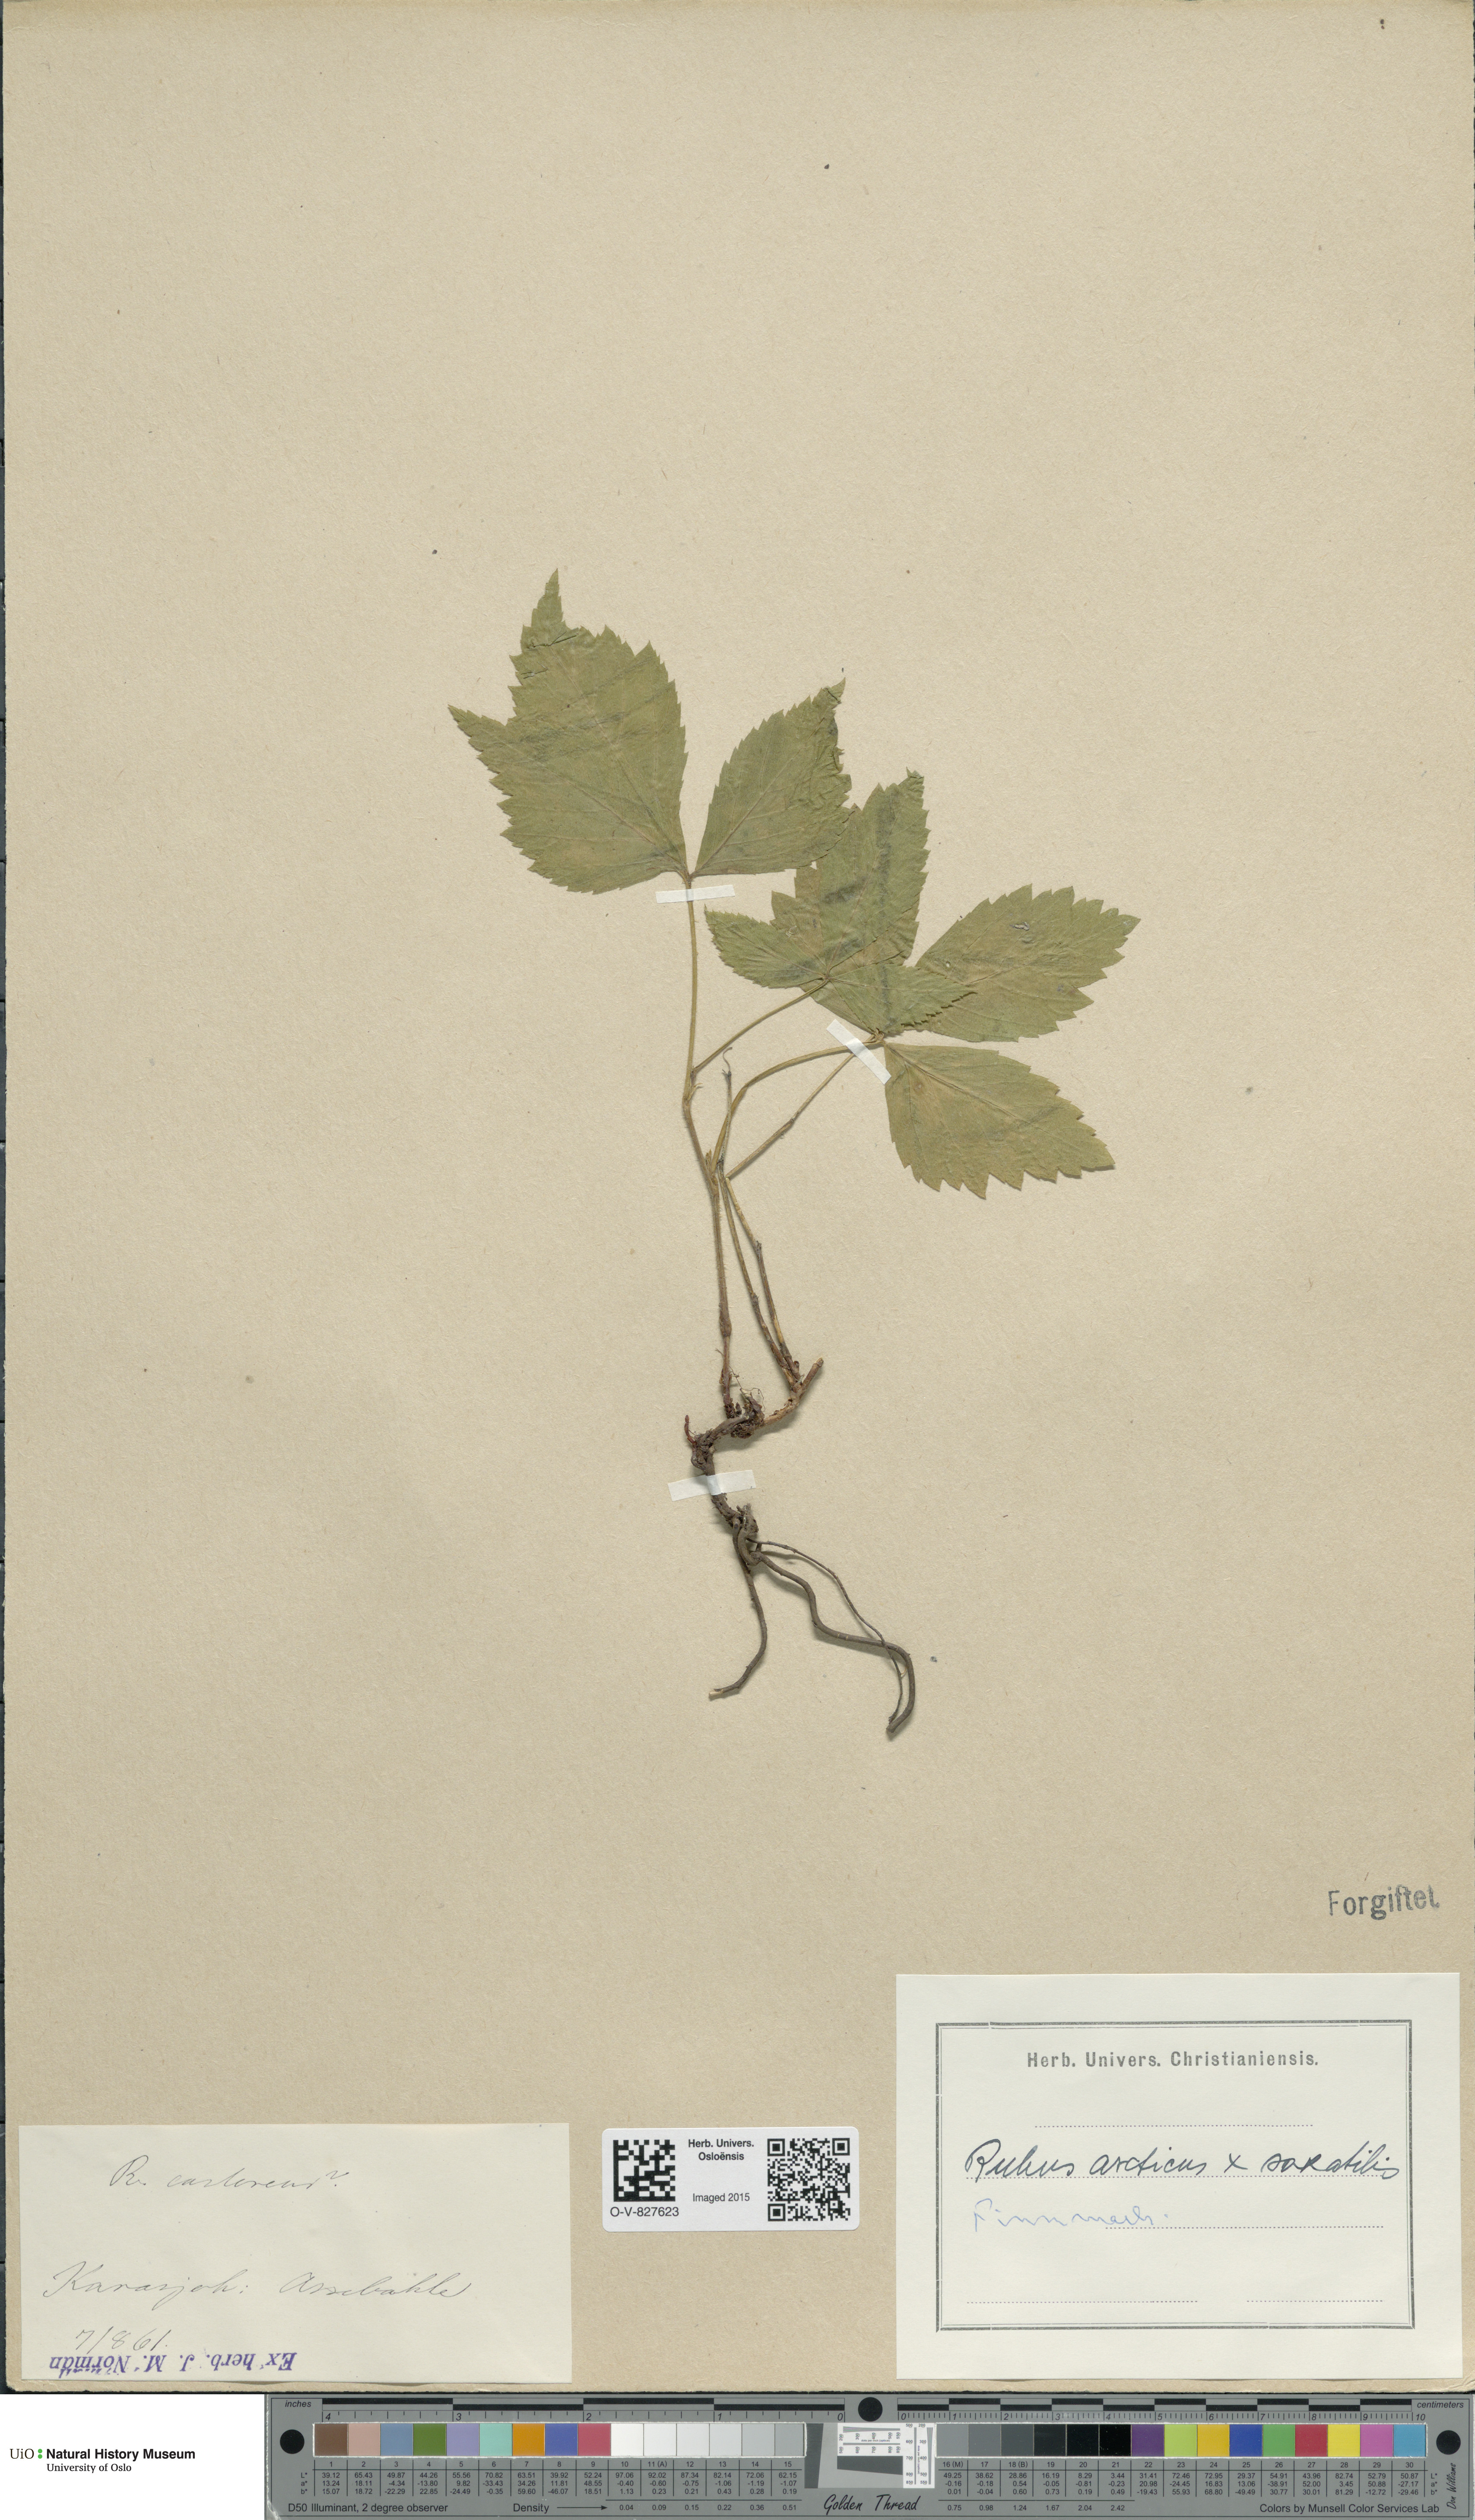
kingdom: Plantae
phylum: Tracheophyta
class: Magnoliopsida
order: Rosales
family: Rosaceae
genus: Rubus
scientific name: Rubus
